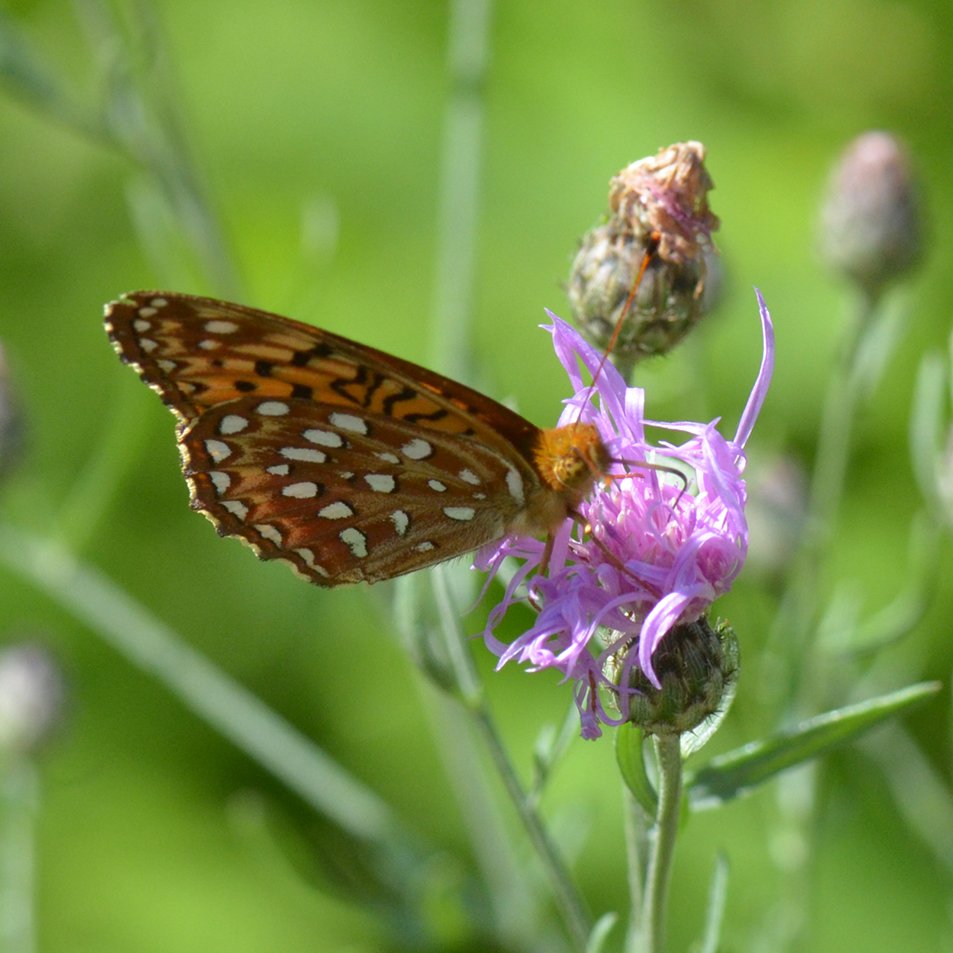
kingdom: Animalia
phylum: Arthropoda
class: Insecta
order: Lepidoptera
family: Nymphalidae
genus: Speyeria
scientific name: Speyeria aphrodite
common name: Aphrodite Fritillary
